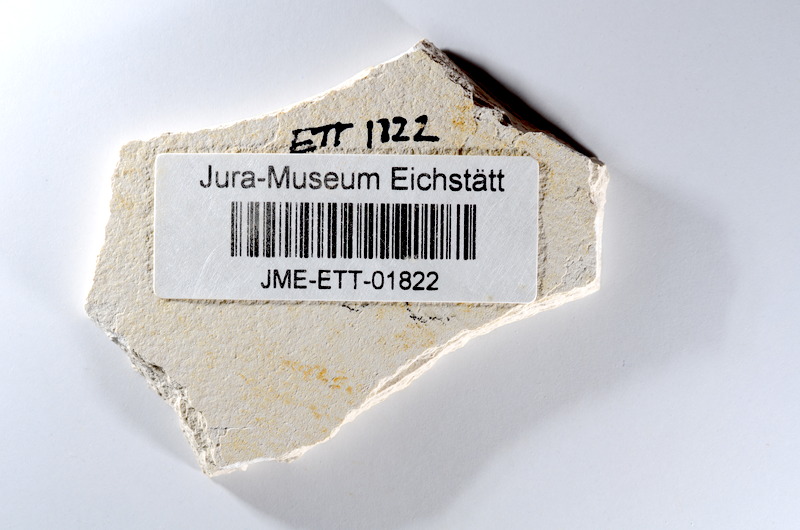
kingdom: Animalia
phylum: Chordata
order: Salmoniformes
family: Orthogonikleithridae
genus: Orthogonikleithrus
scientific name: Orthogonikleithrus hoelli
